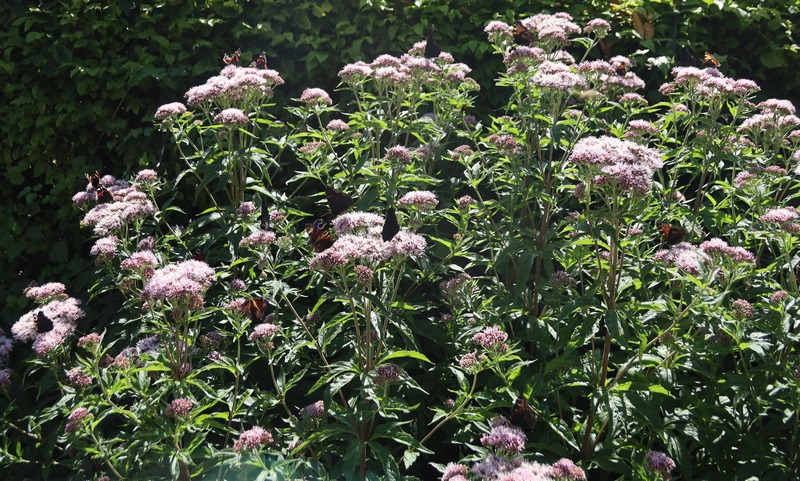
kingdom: Plantae
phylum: Tracheophyta
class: Magnoliopsida
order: Asterales
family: Asteraceae
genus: Eupatorium
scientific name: Eupatorium cannabinum
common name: Hjortetrøst
